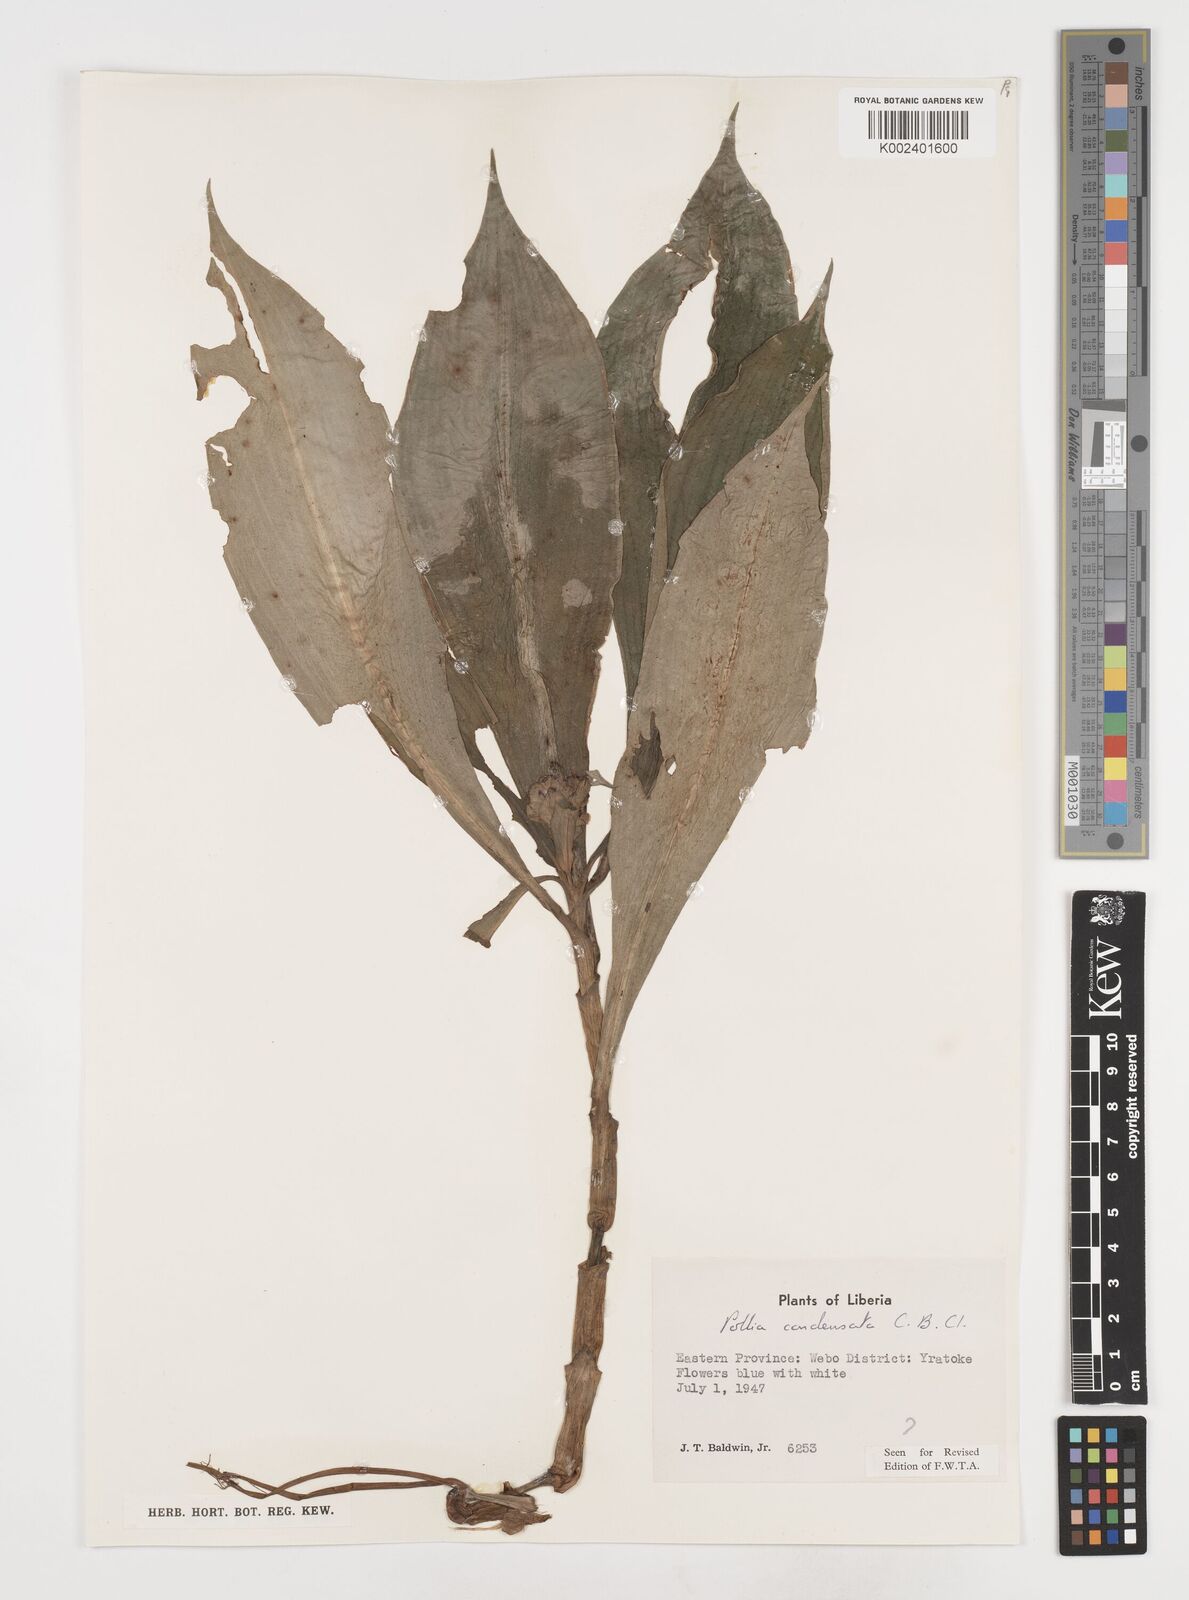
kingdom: Plantae
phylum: Tracheophyta
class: Liliopsida
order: Commelinales
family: Commelinaceae
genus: Pollia
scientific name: Pollia condensata
